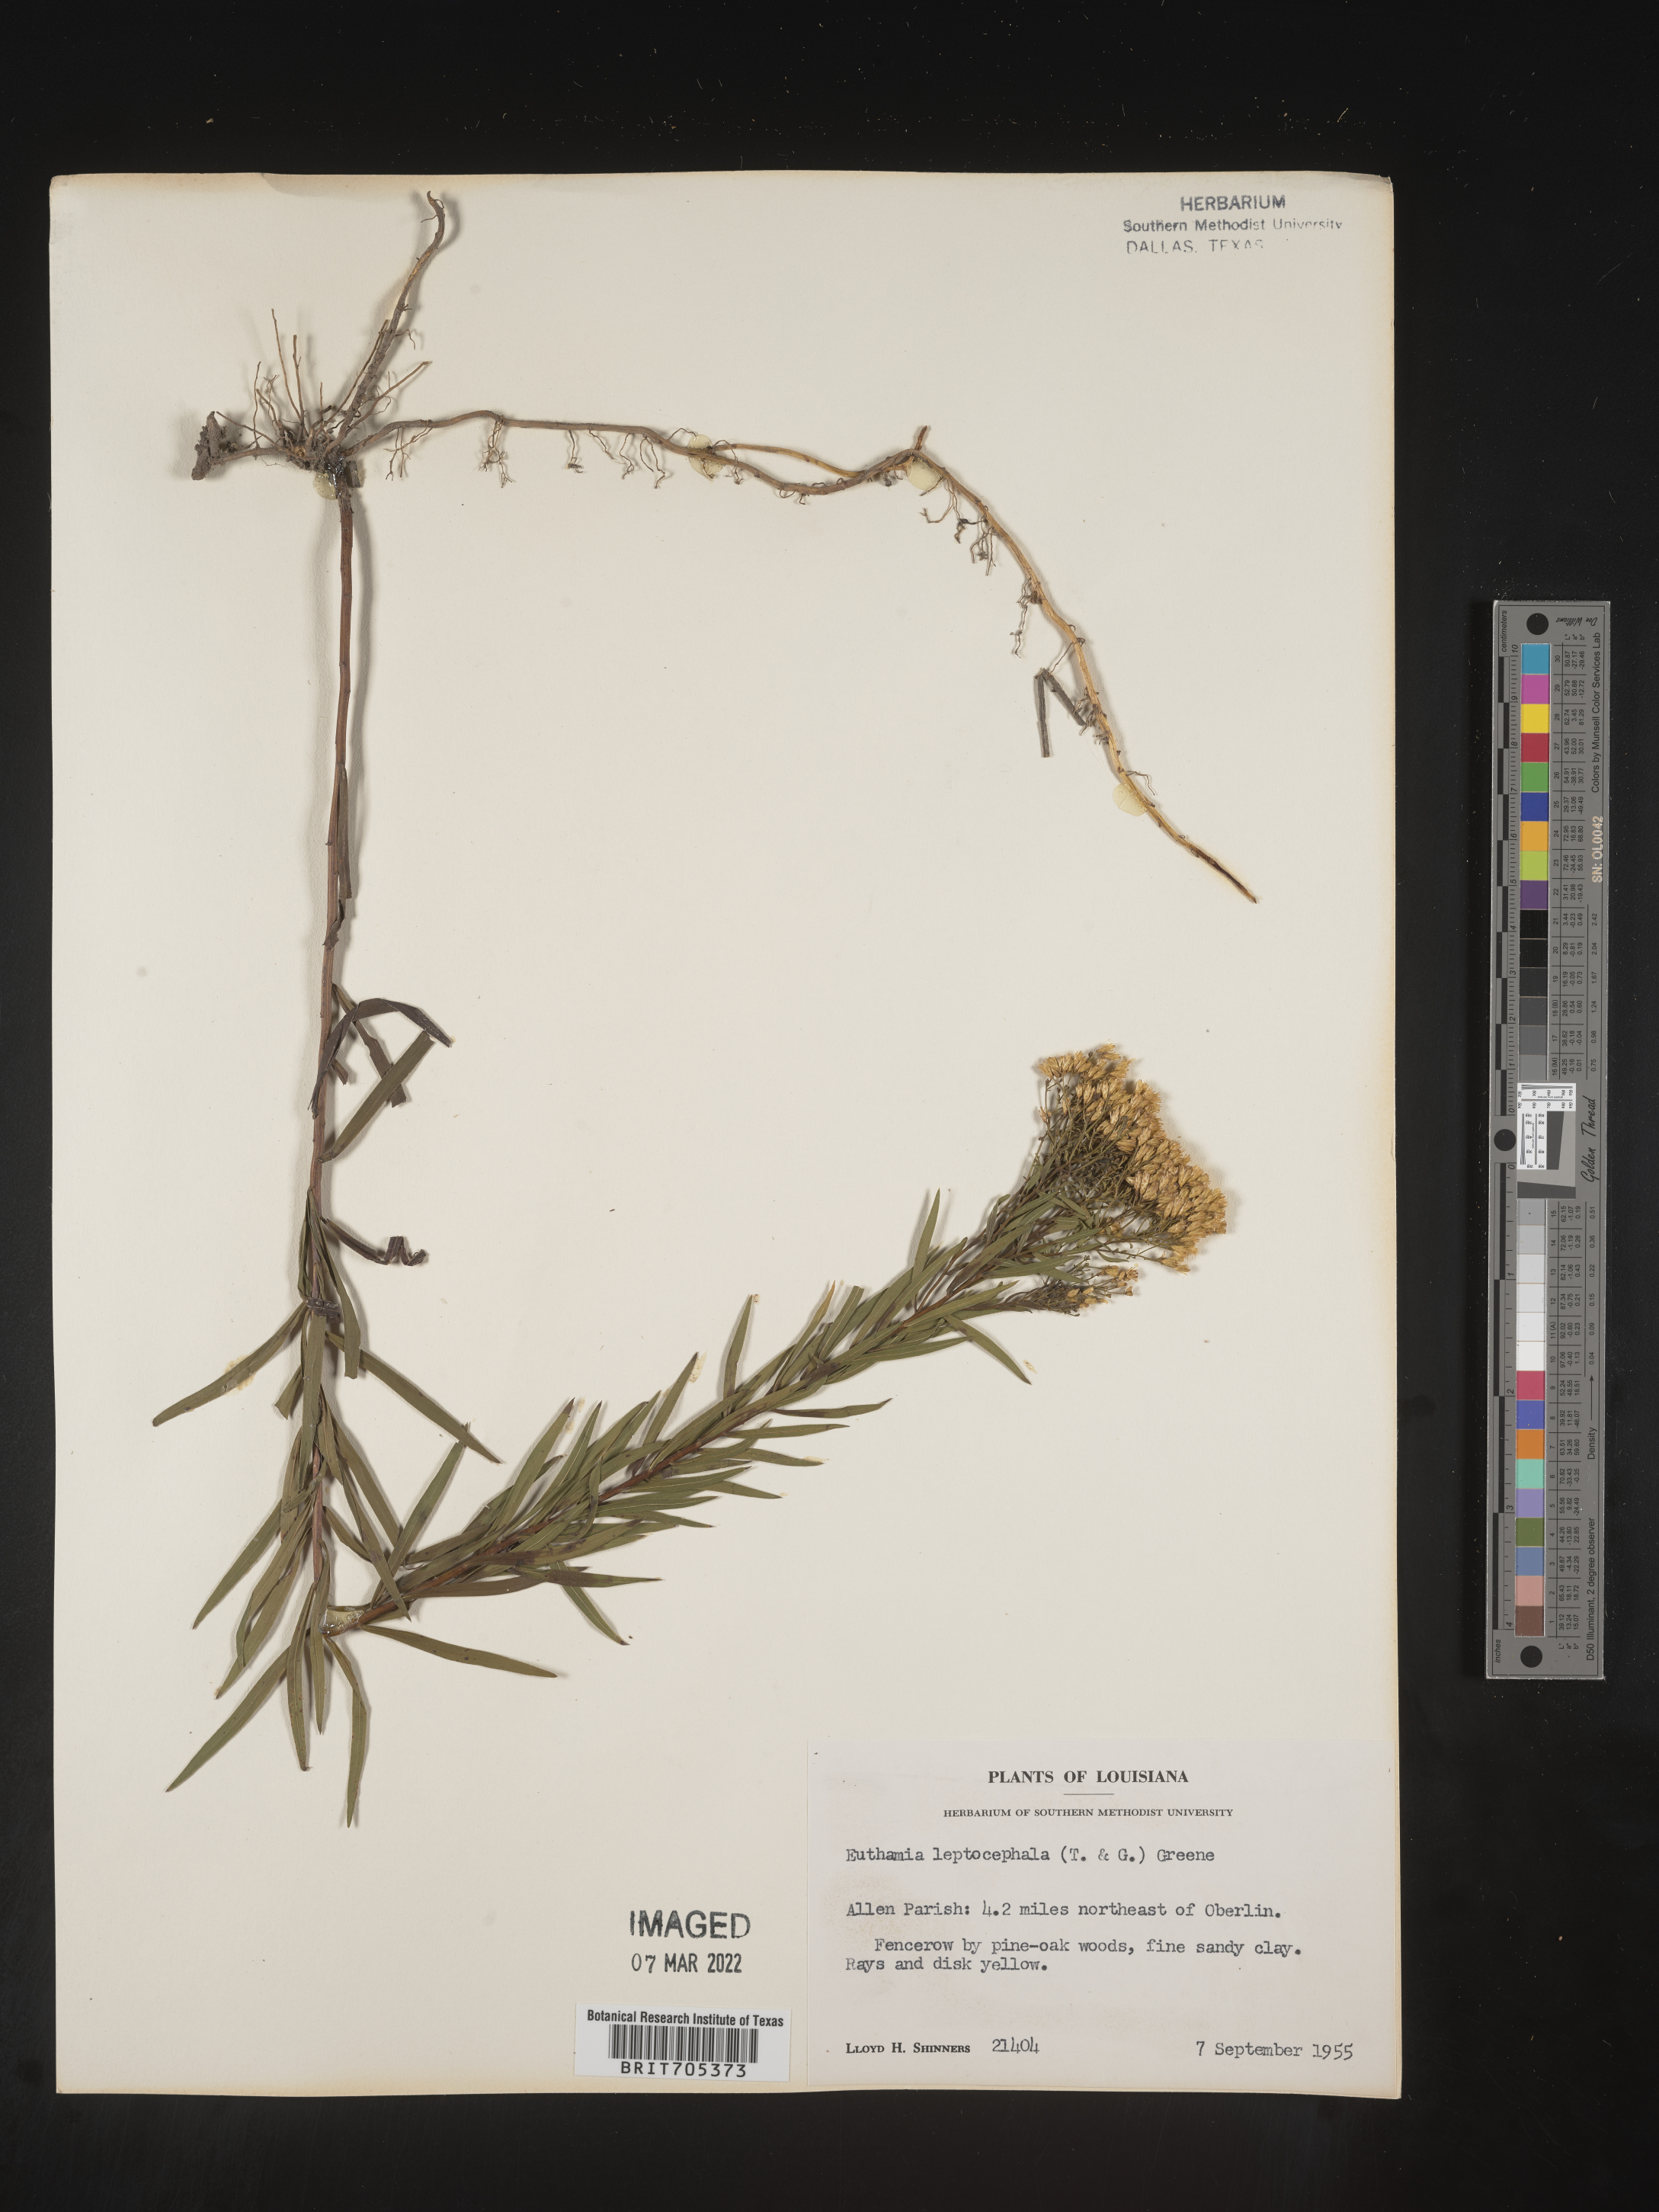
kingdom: Plantae
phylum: Tracheophyta
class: Magnoliopsida
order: Asterales
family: Asteraceae
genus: Euthamia
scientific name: Euthamia leptocephala
